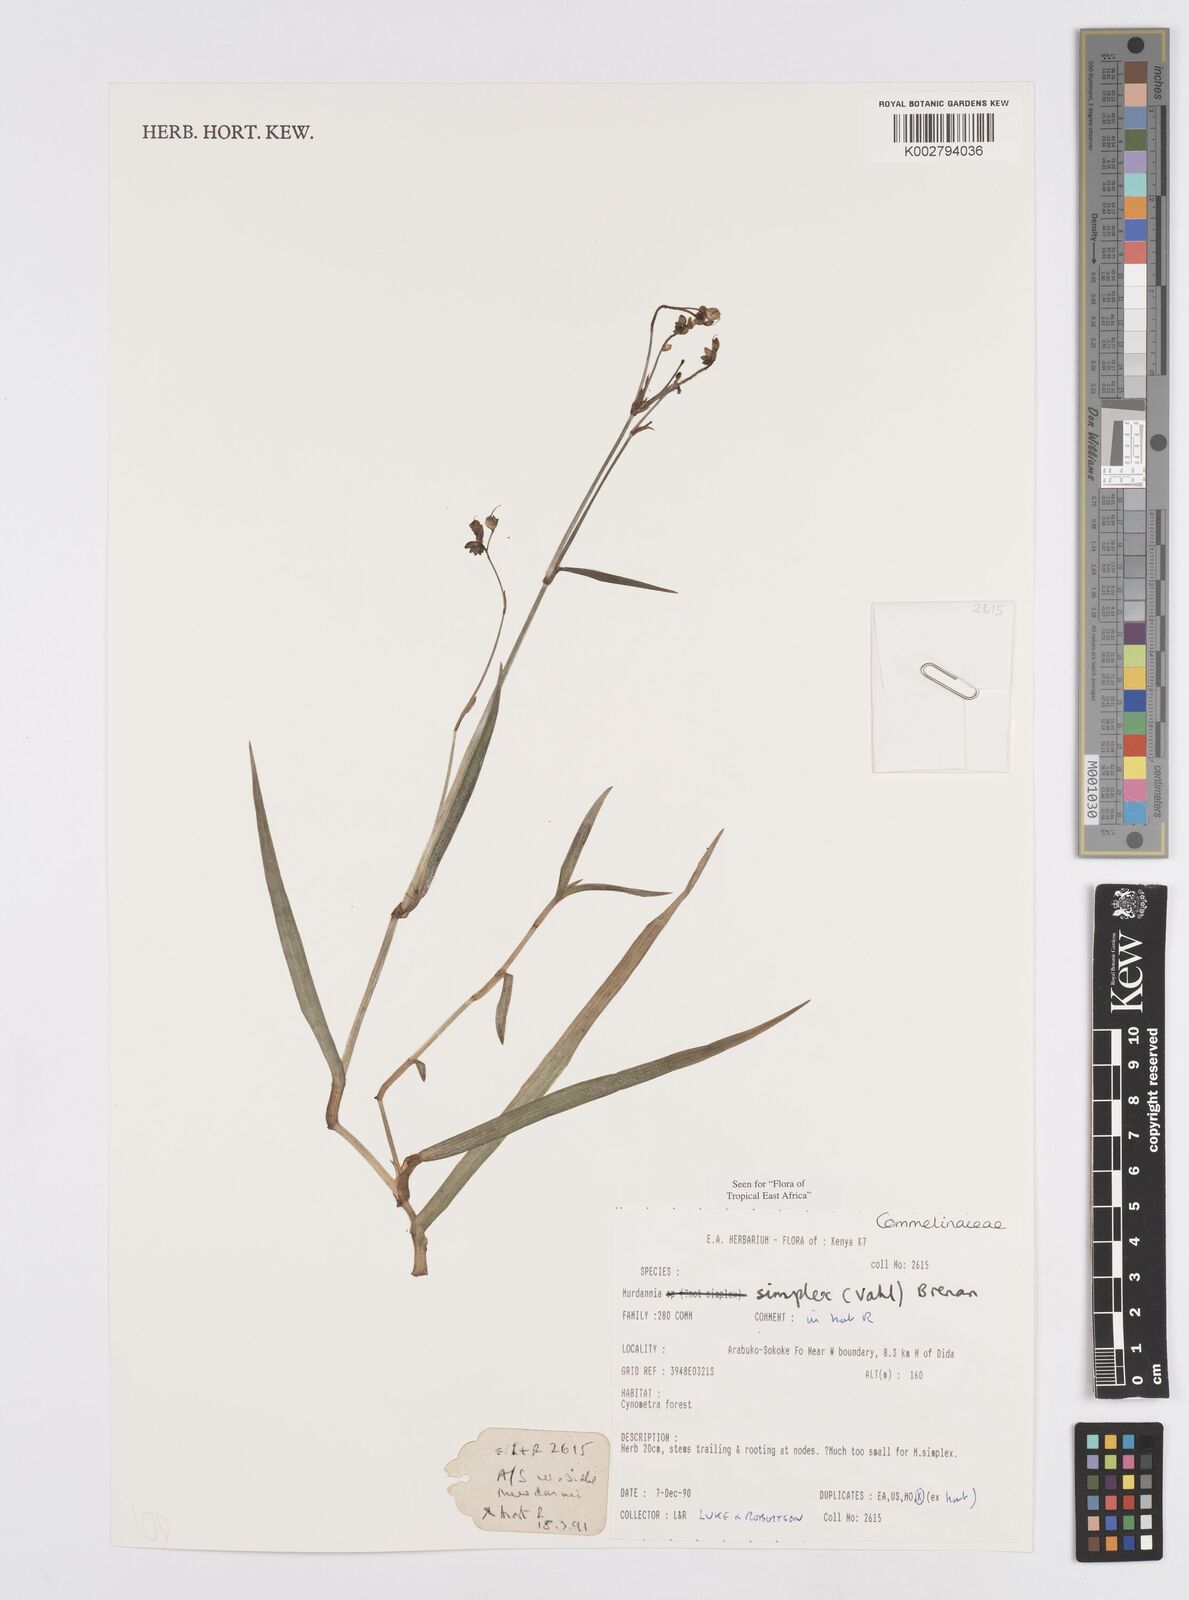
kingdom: Plantae
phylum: Tracheophyta
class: Liliopsida
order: Commelinales
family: Commelinaceae
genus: Murdannia
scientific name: Murdannia simplex
